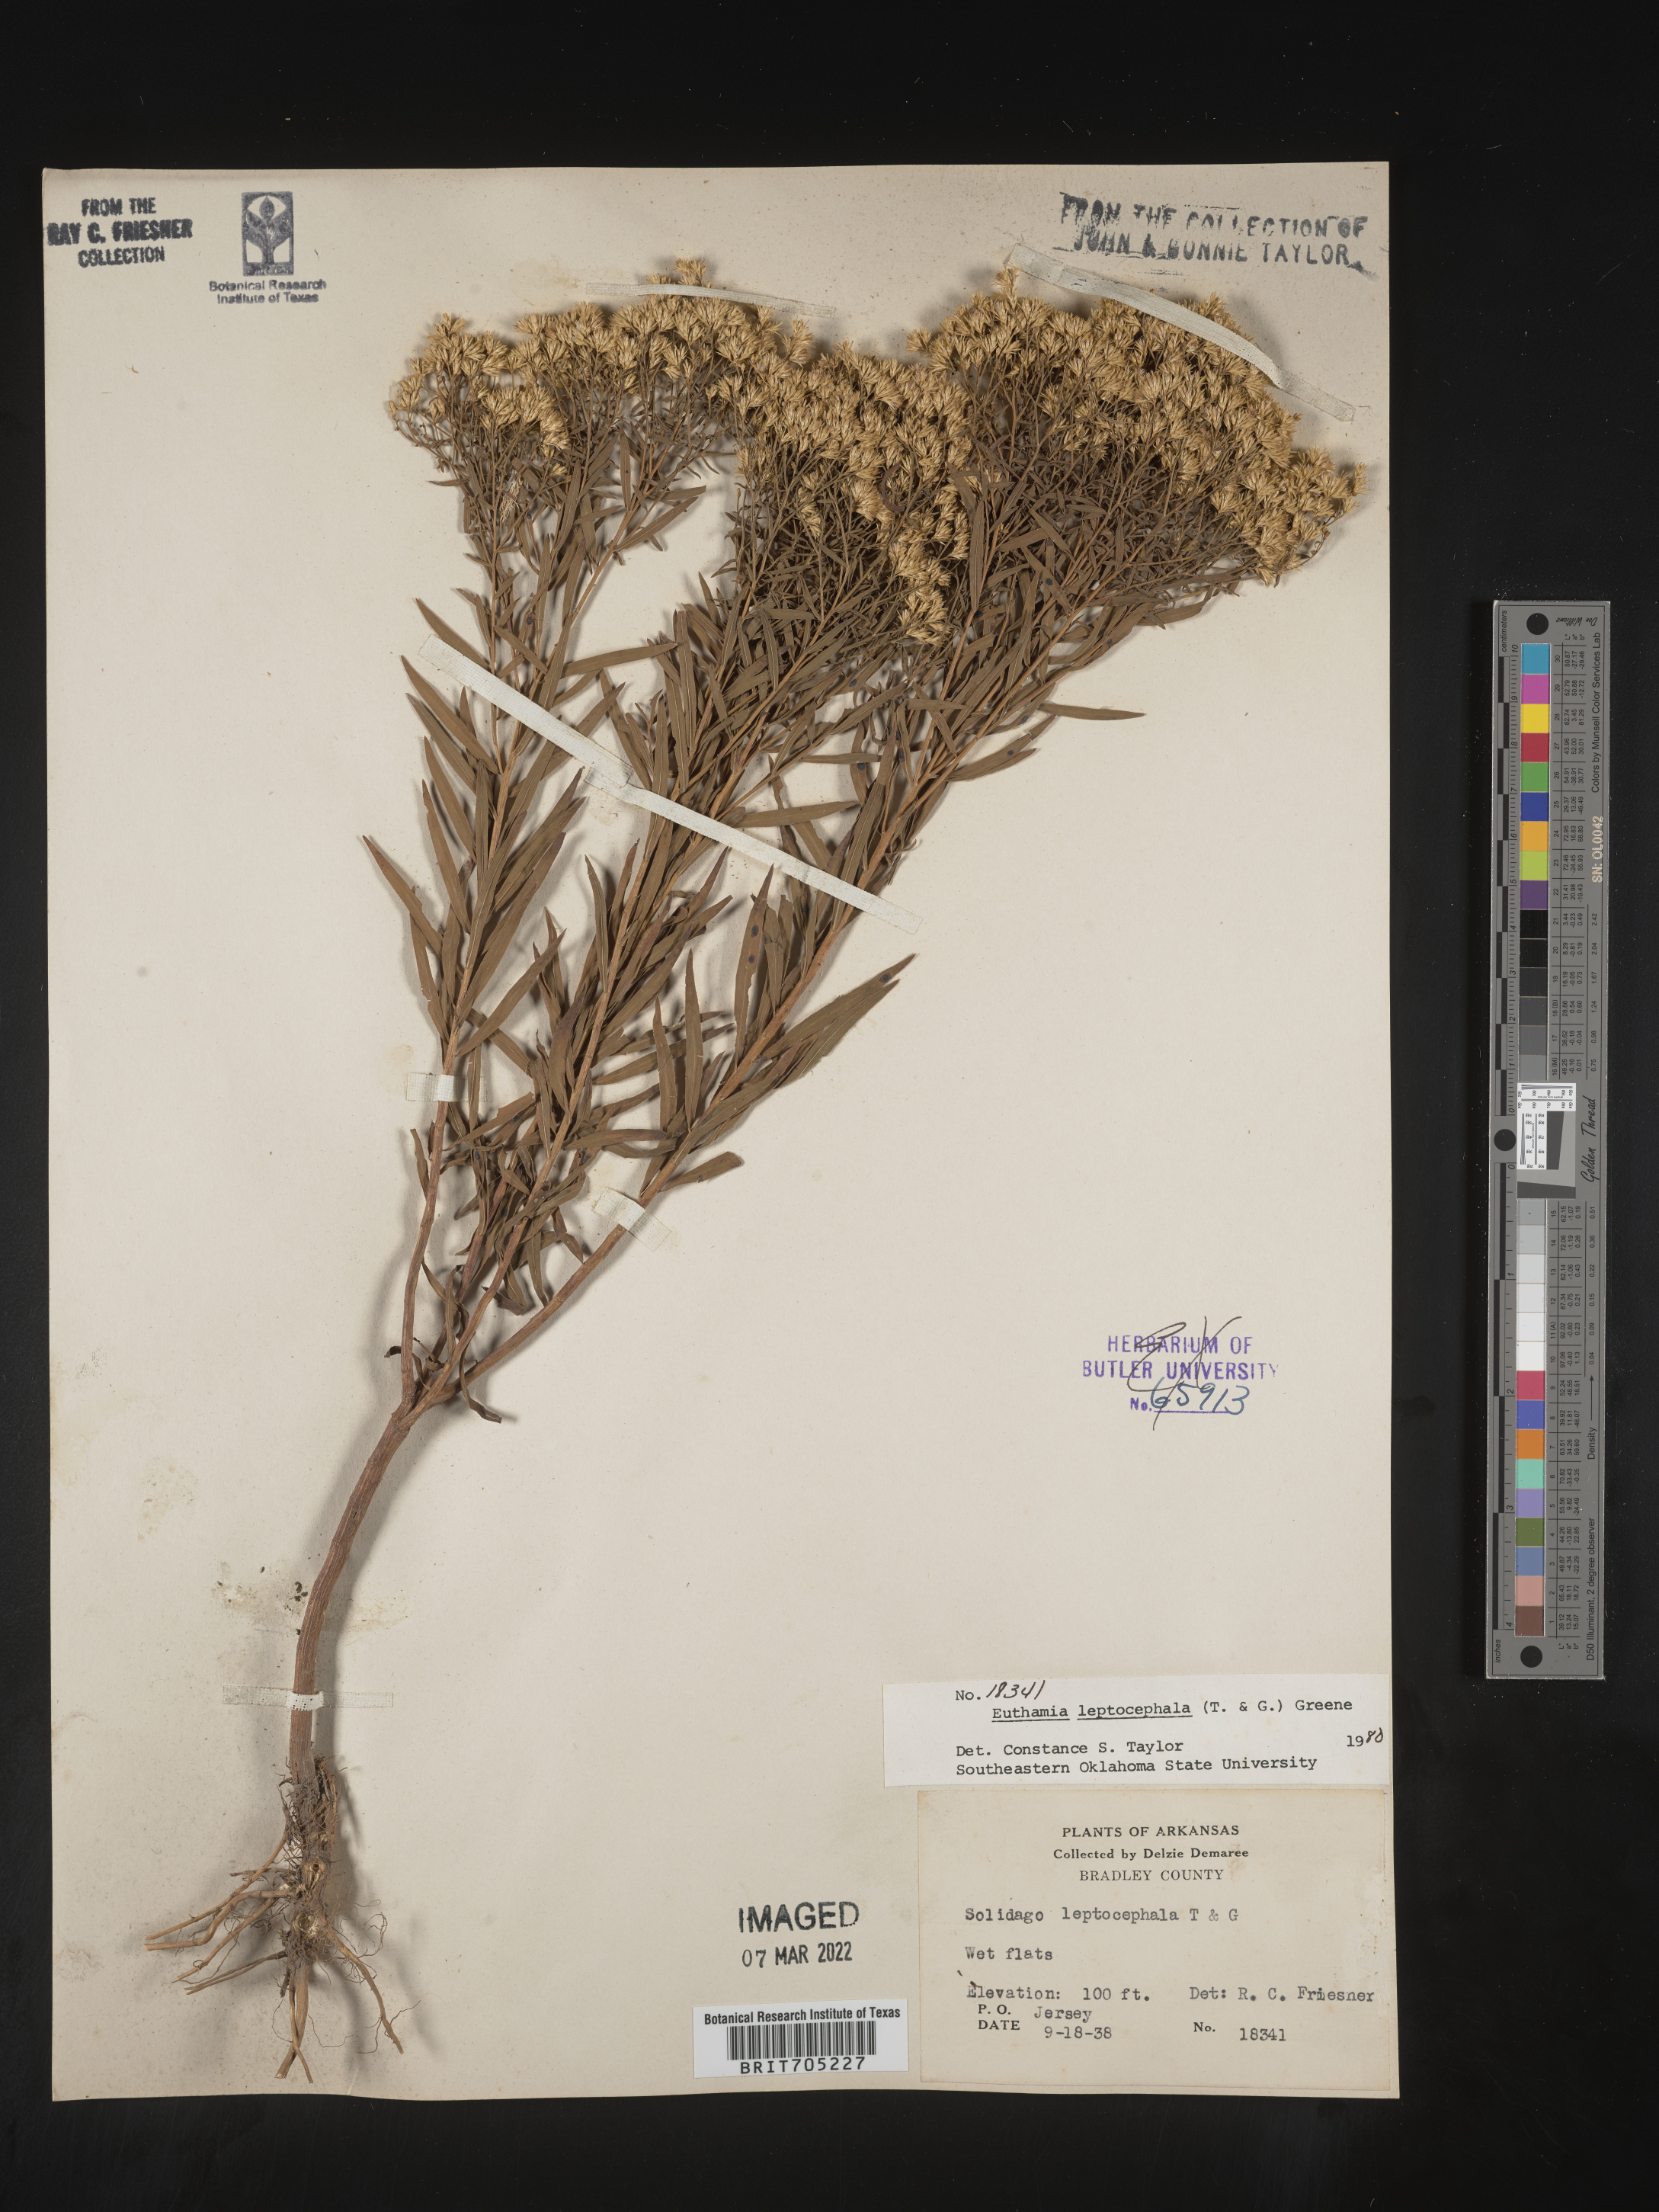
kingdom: Plantae
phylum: Tracheophyta
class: Magnoliopsida
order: Asterales
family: Asteraceae
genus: Euthamia
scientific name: Euthamia leptocephala
